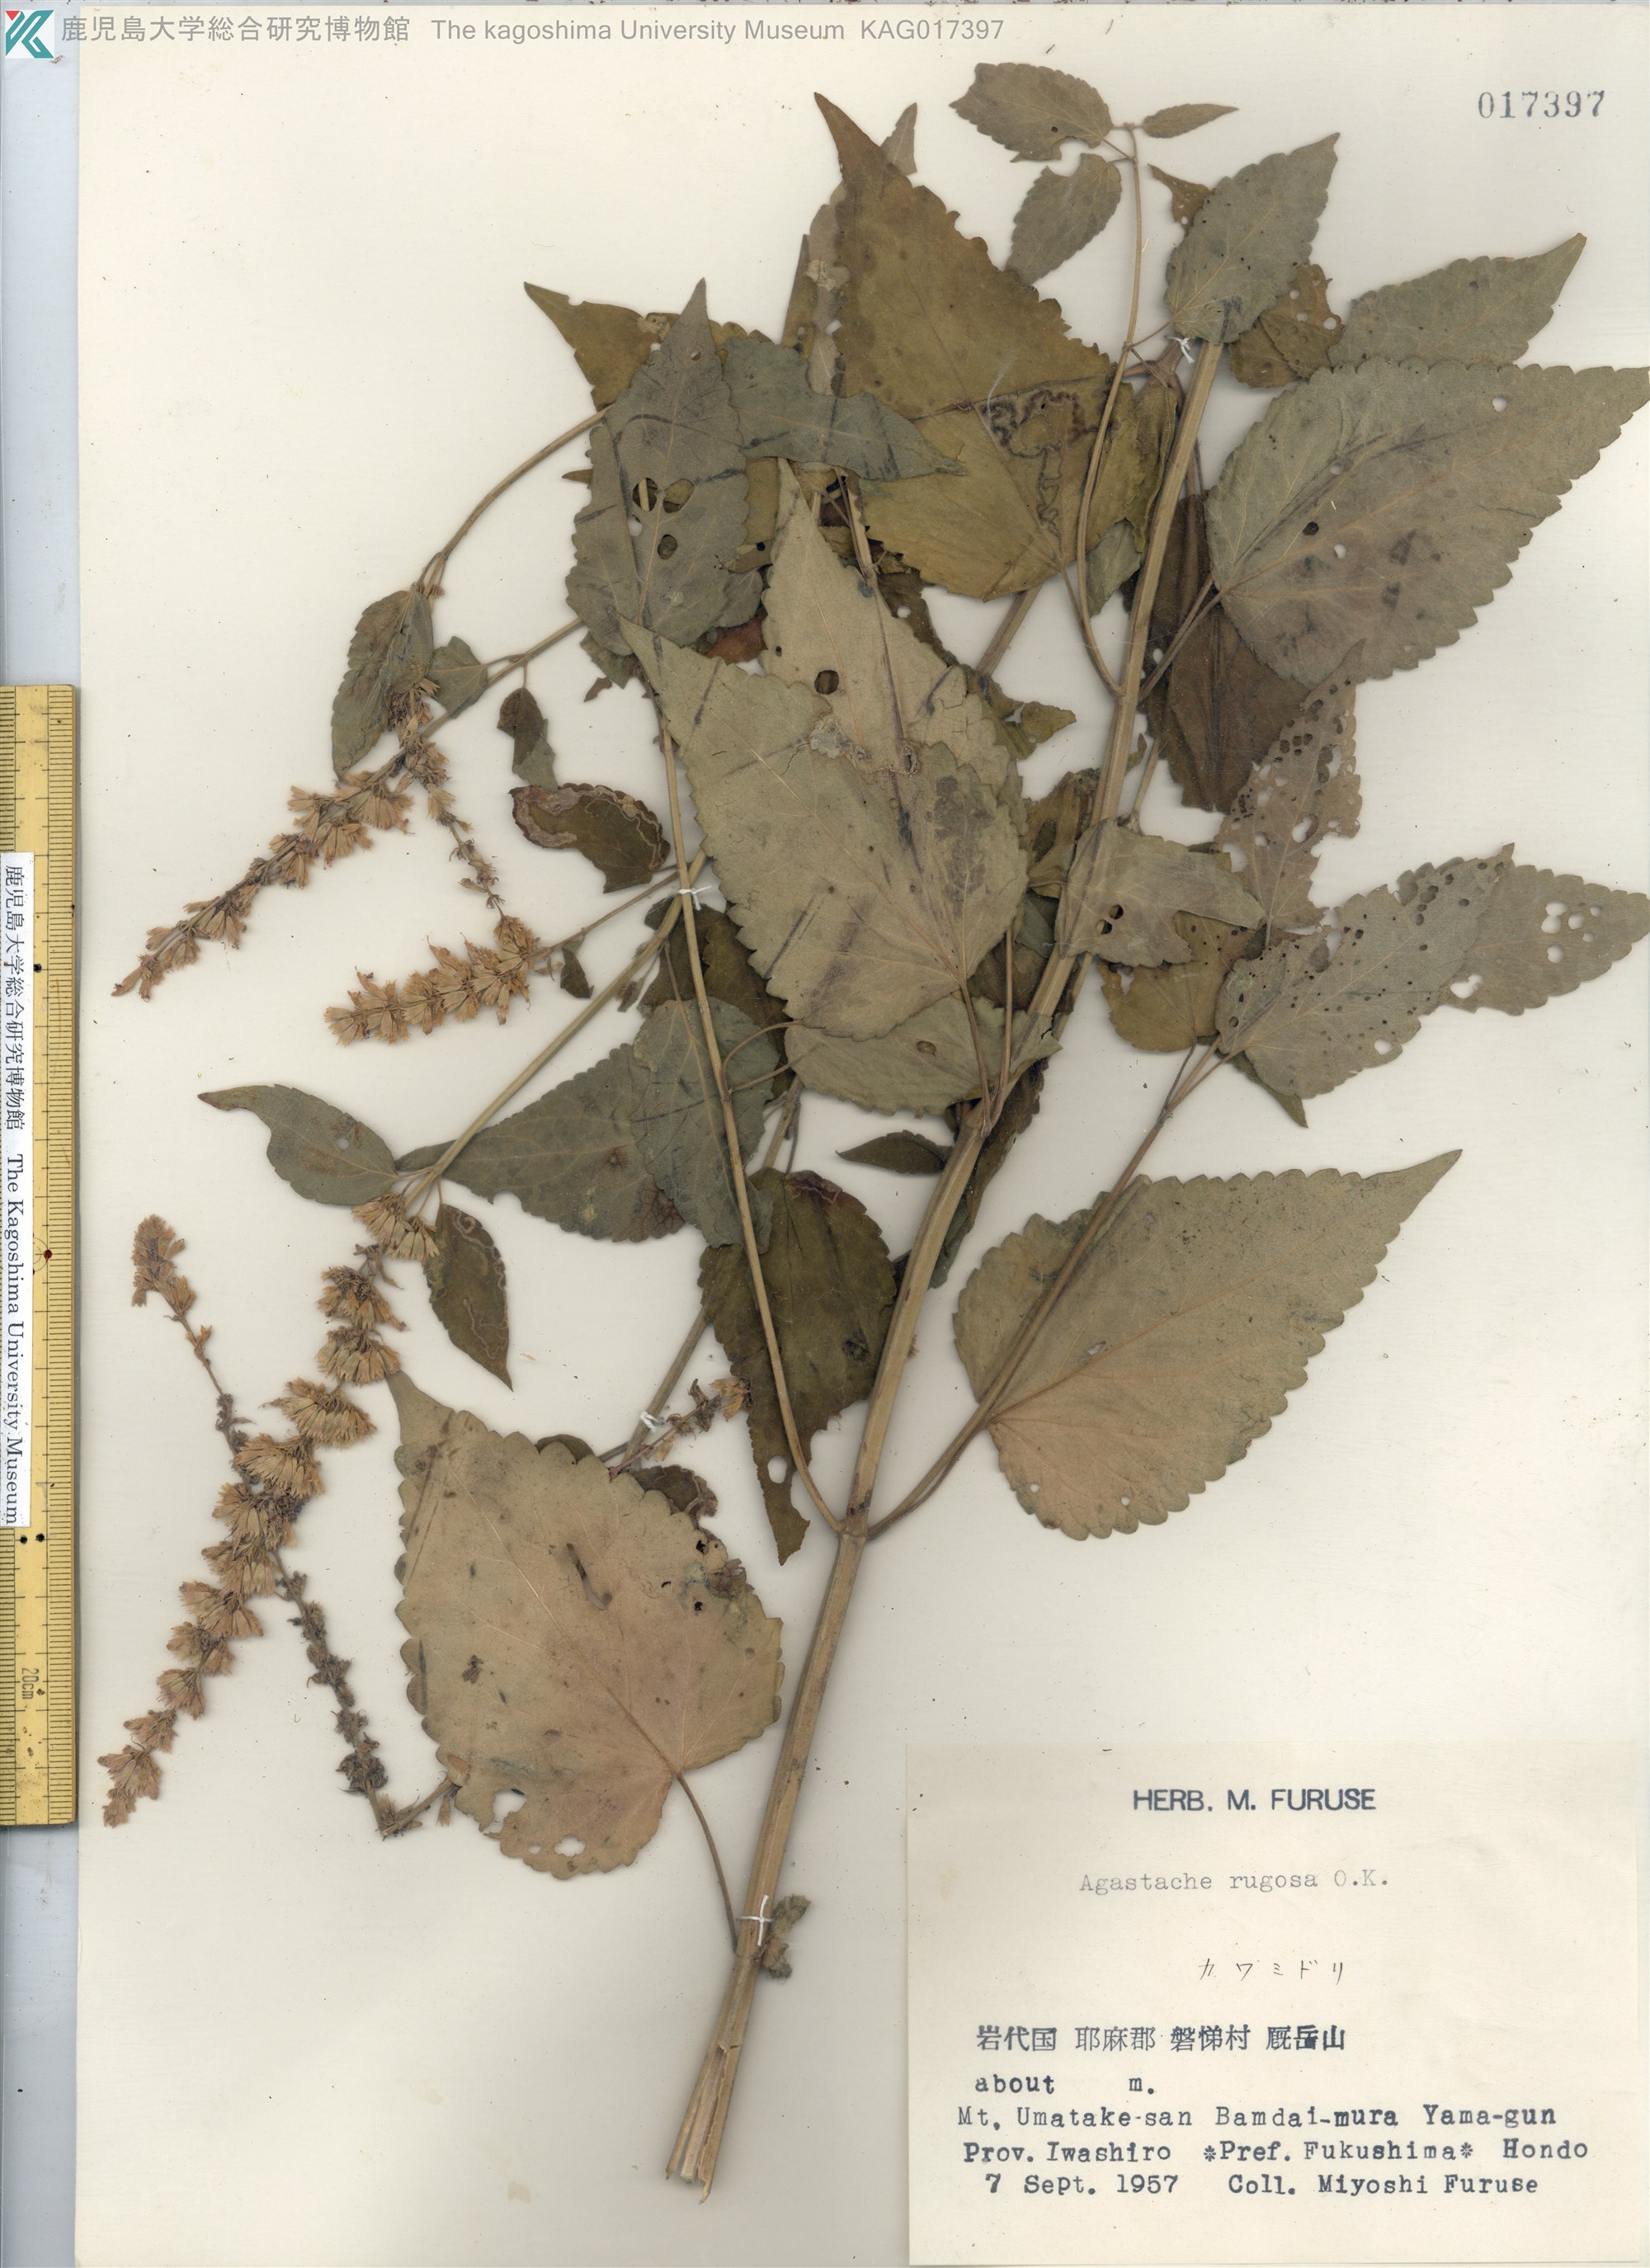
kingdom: Plantae
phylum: Tracheophyta
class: Magnoliopsida
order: Lamiales
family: Lamiaceae
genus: Agastache
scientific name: Agastache rugosa
